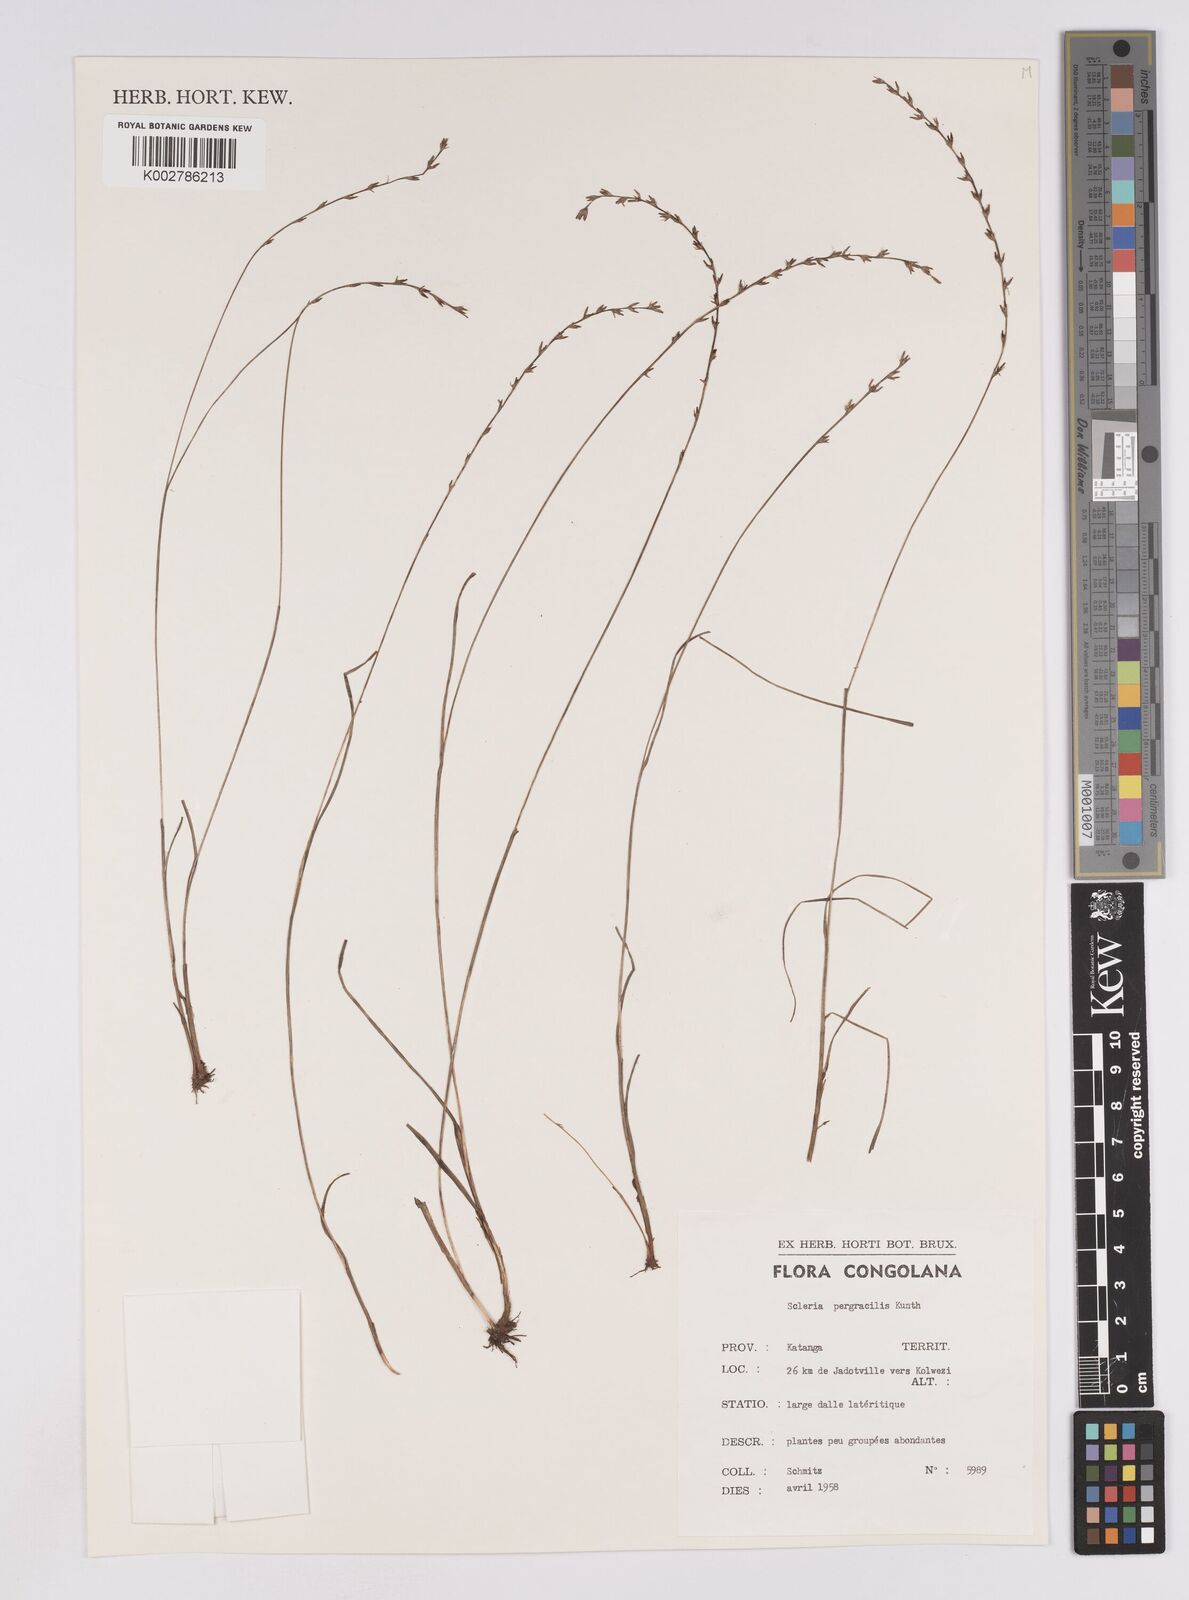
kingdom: Plantae
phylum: Tracheophyta
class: Liliopsida
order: Poales
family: Cyperaceae
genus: Scleria
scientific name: Scleria pergracilis
